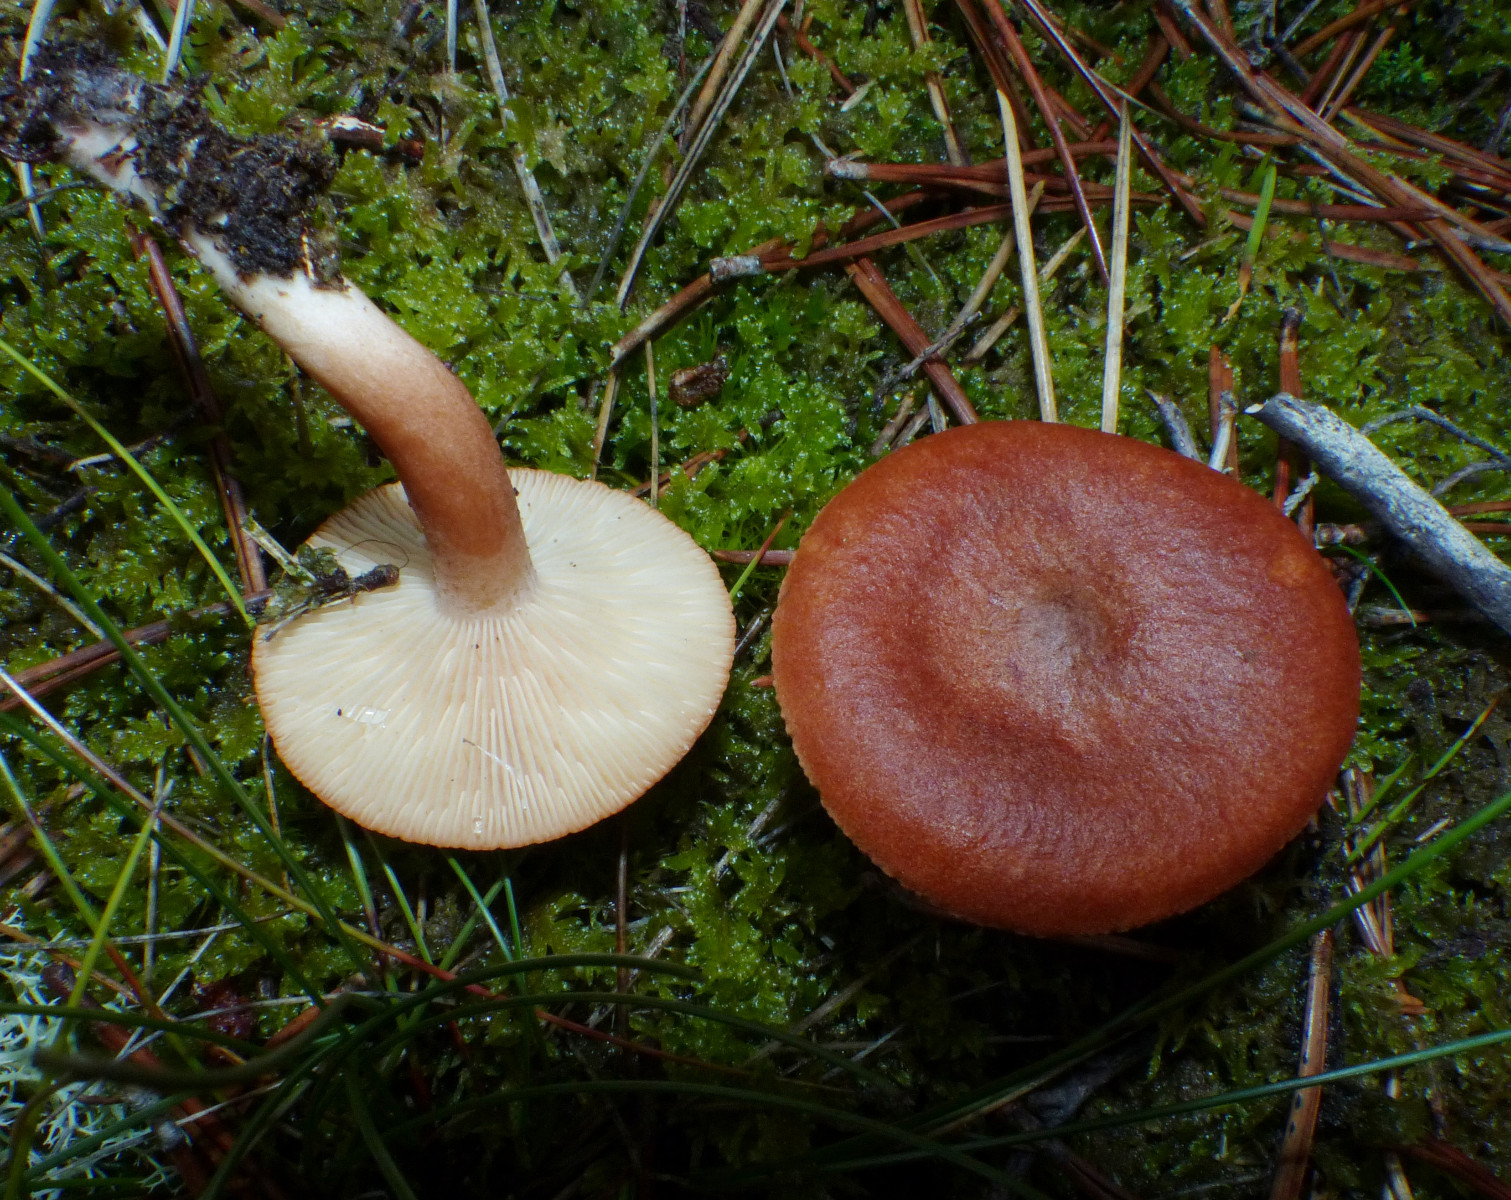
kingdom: Fungi
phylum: Basidiomycota
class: Agaricomycetes
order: Russulales
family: Russulaceae
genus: Lactarius
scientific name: Lactarius rufus
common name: rødbrun mælkehat
